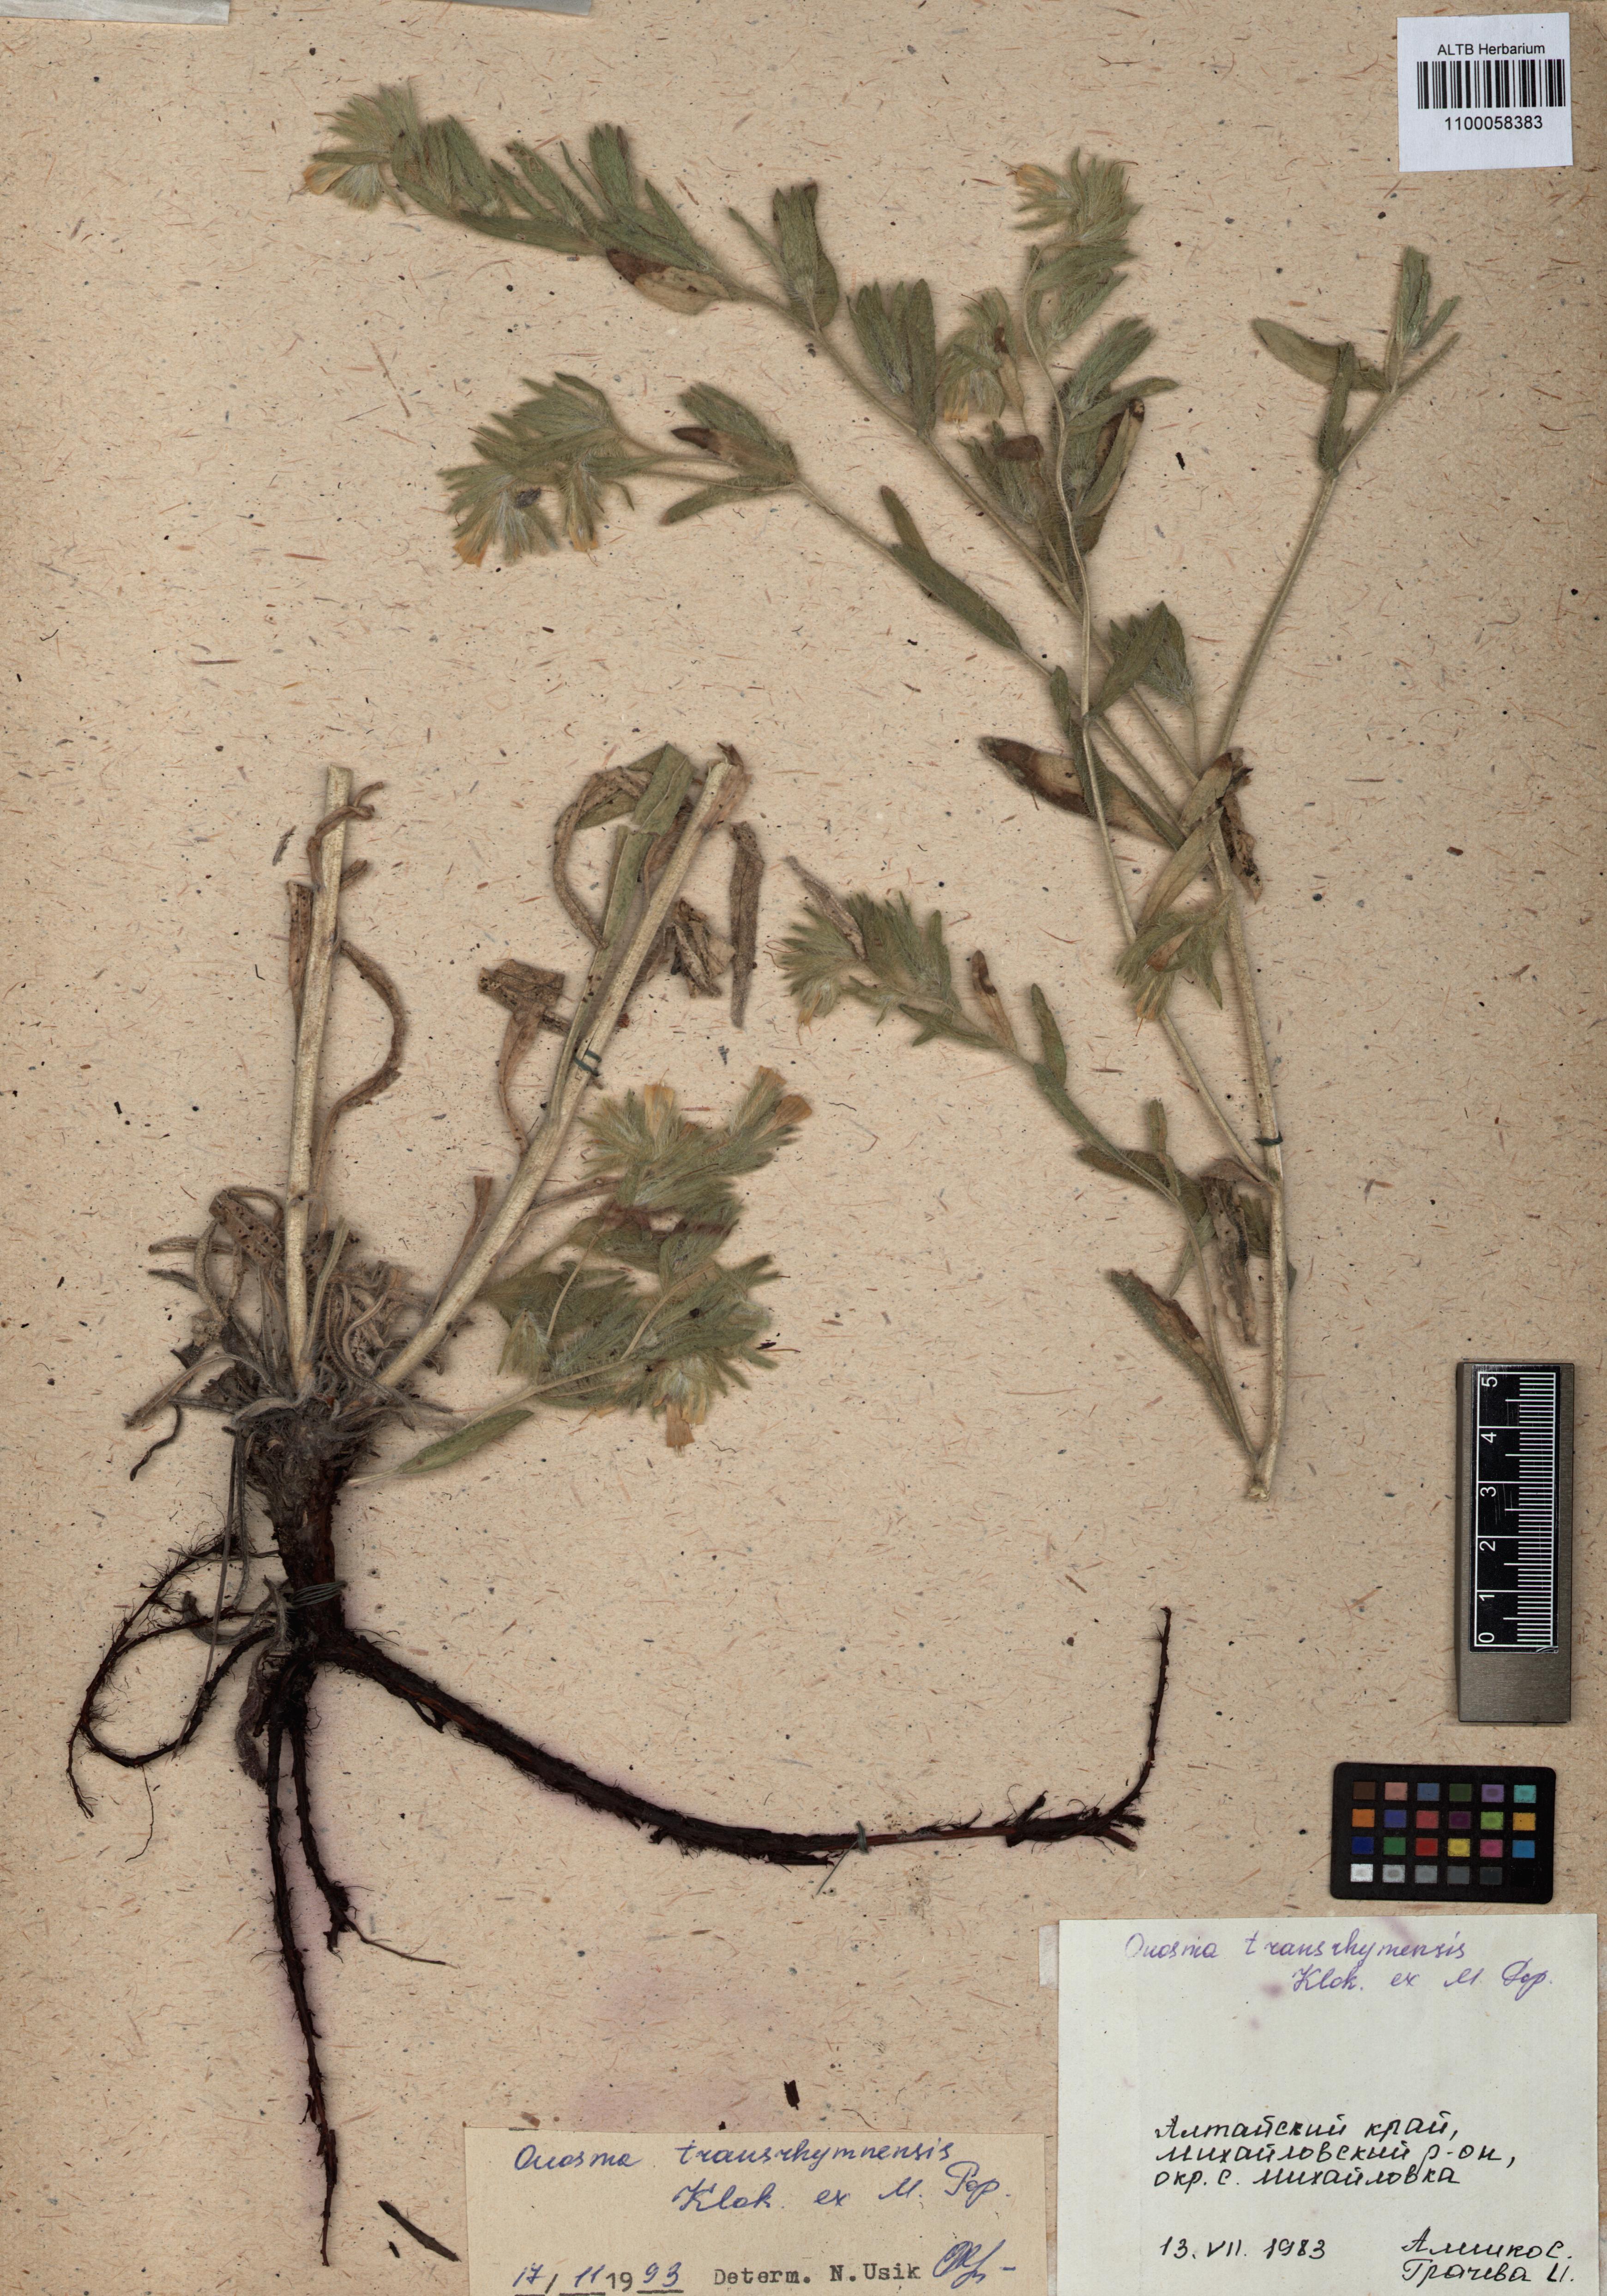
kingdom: Plantae
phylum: Tracheophyta
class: Magnoliopsida
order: Boraginales
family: Boraginaceae
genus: Onosma
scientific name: Onosma setosa
